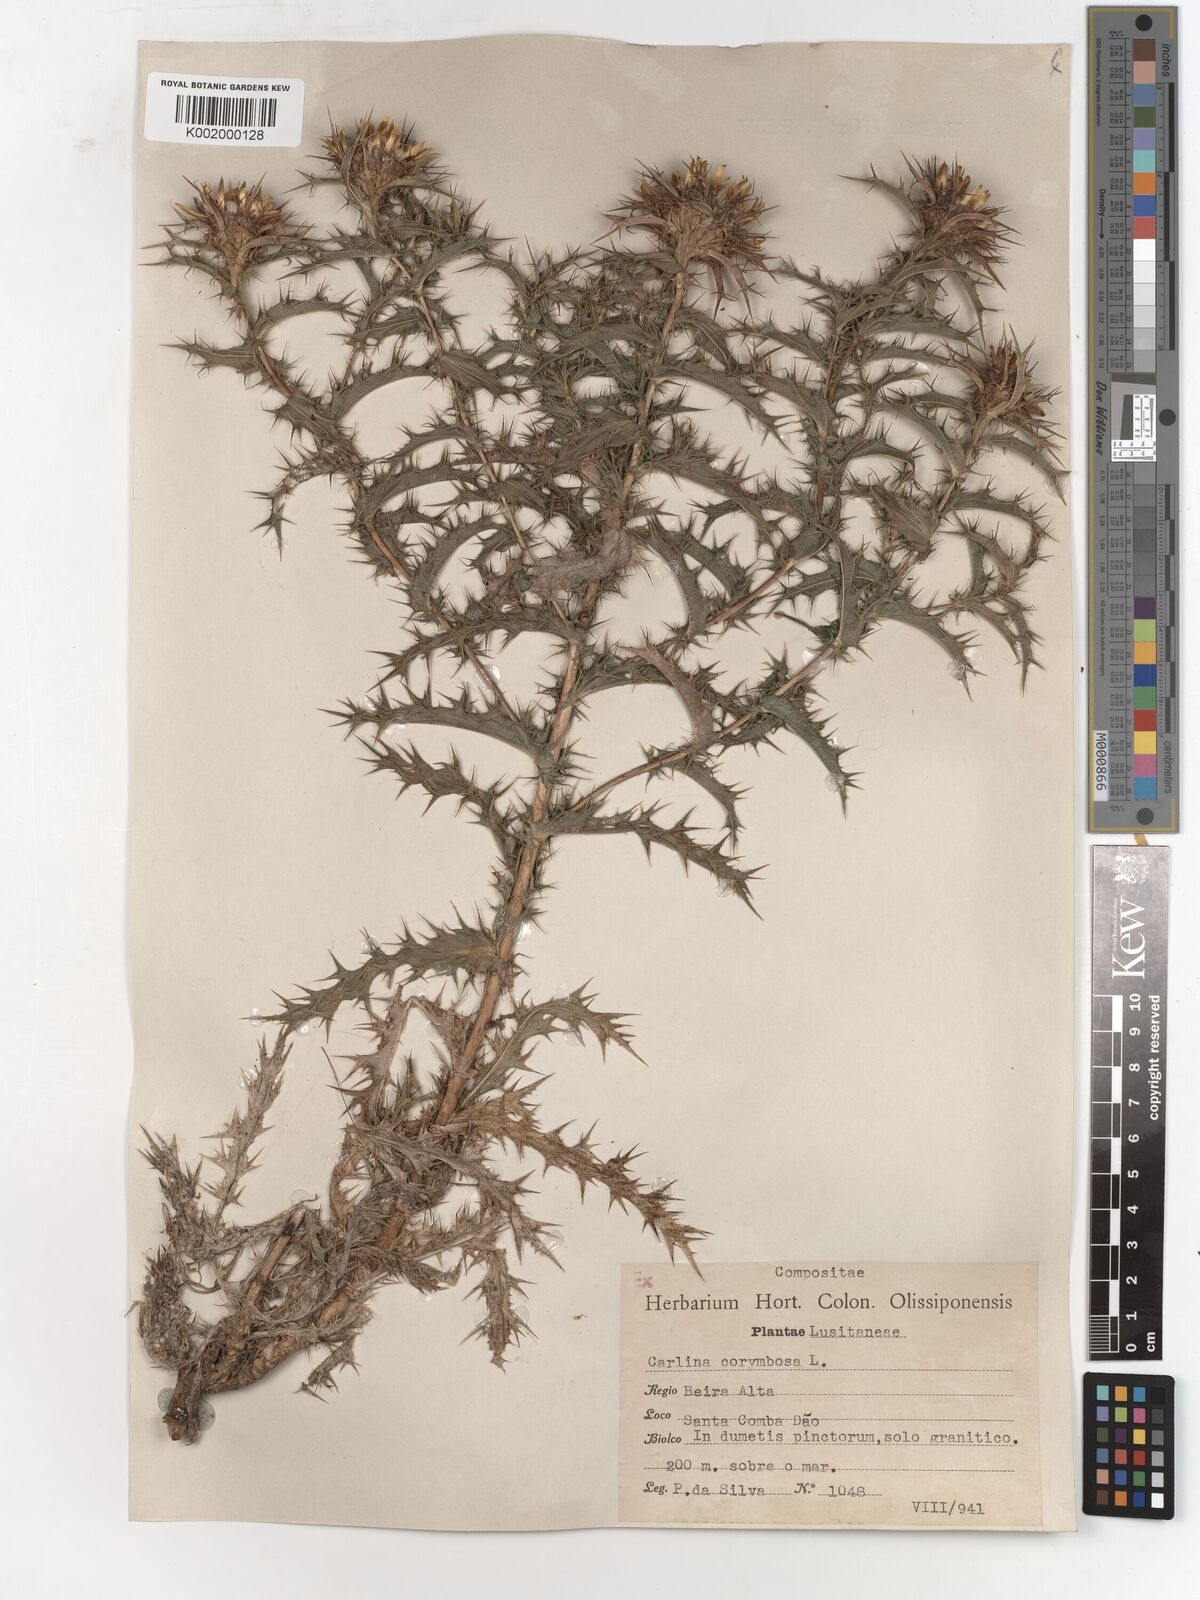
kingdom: Plantae
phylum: Tracheophyta
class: Magnoliopsida
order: Asterales
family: Asteraceae
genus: Carlina
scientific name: Carlina corymbosa
